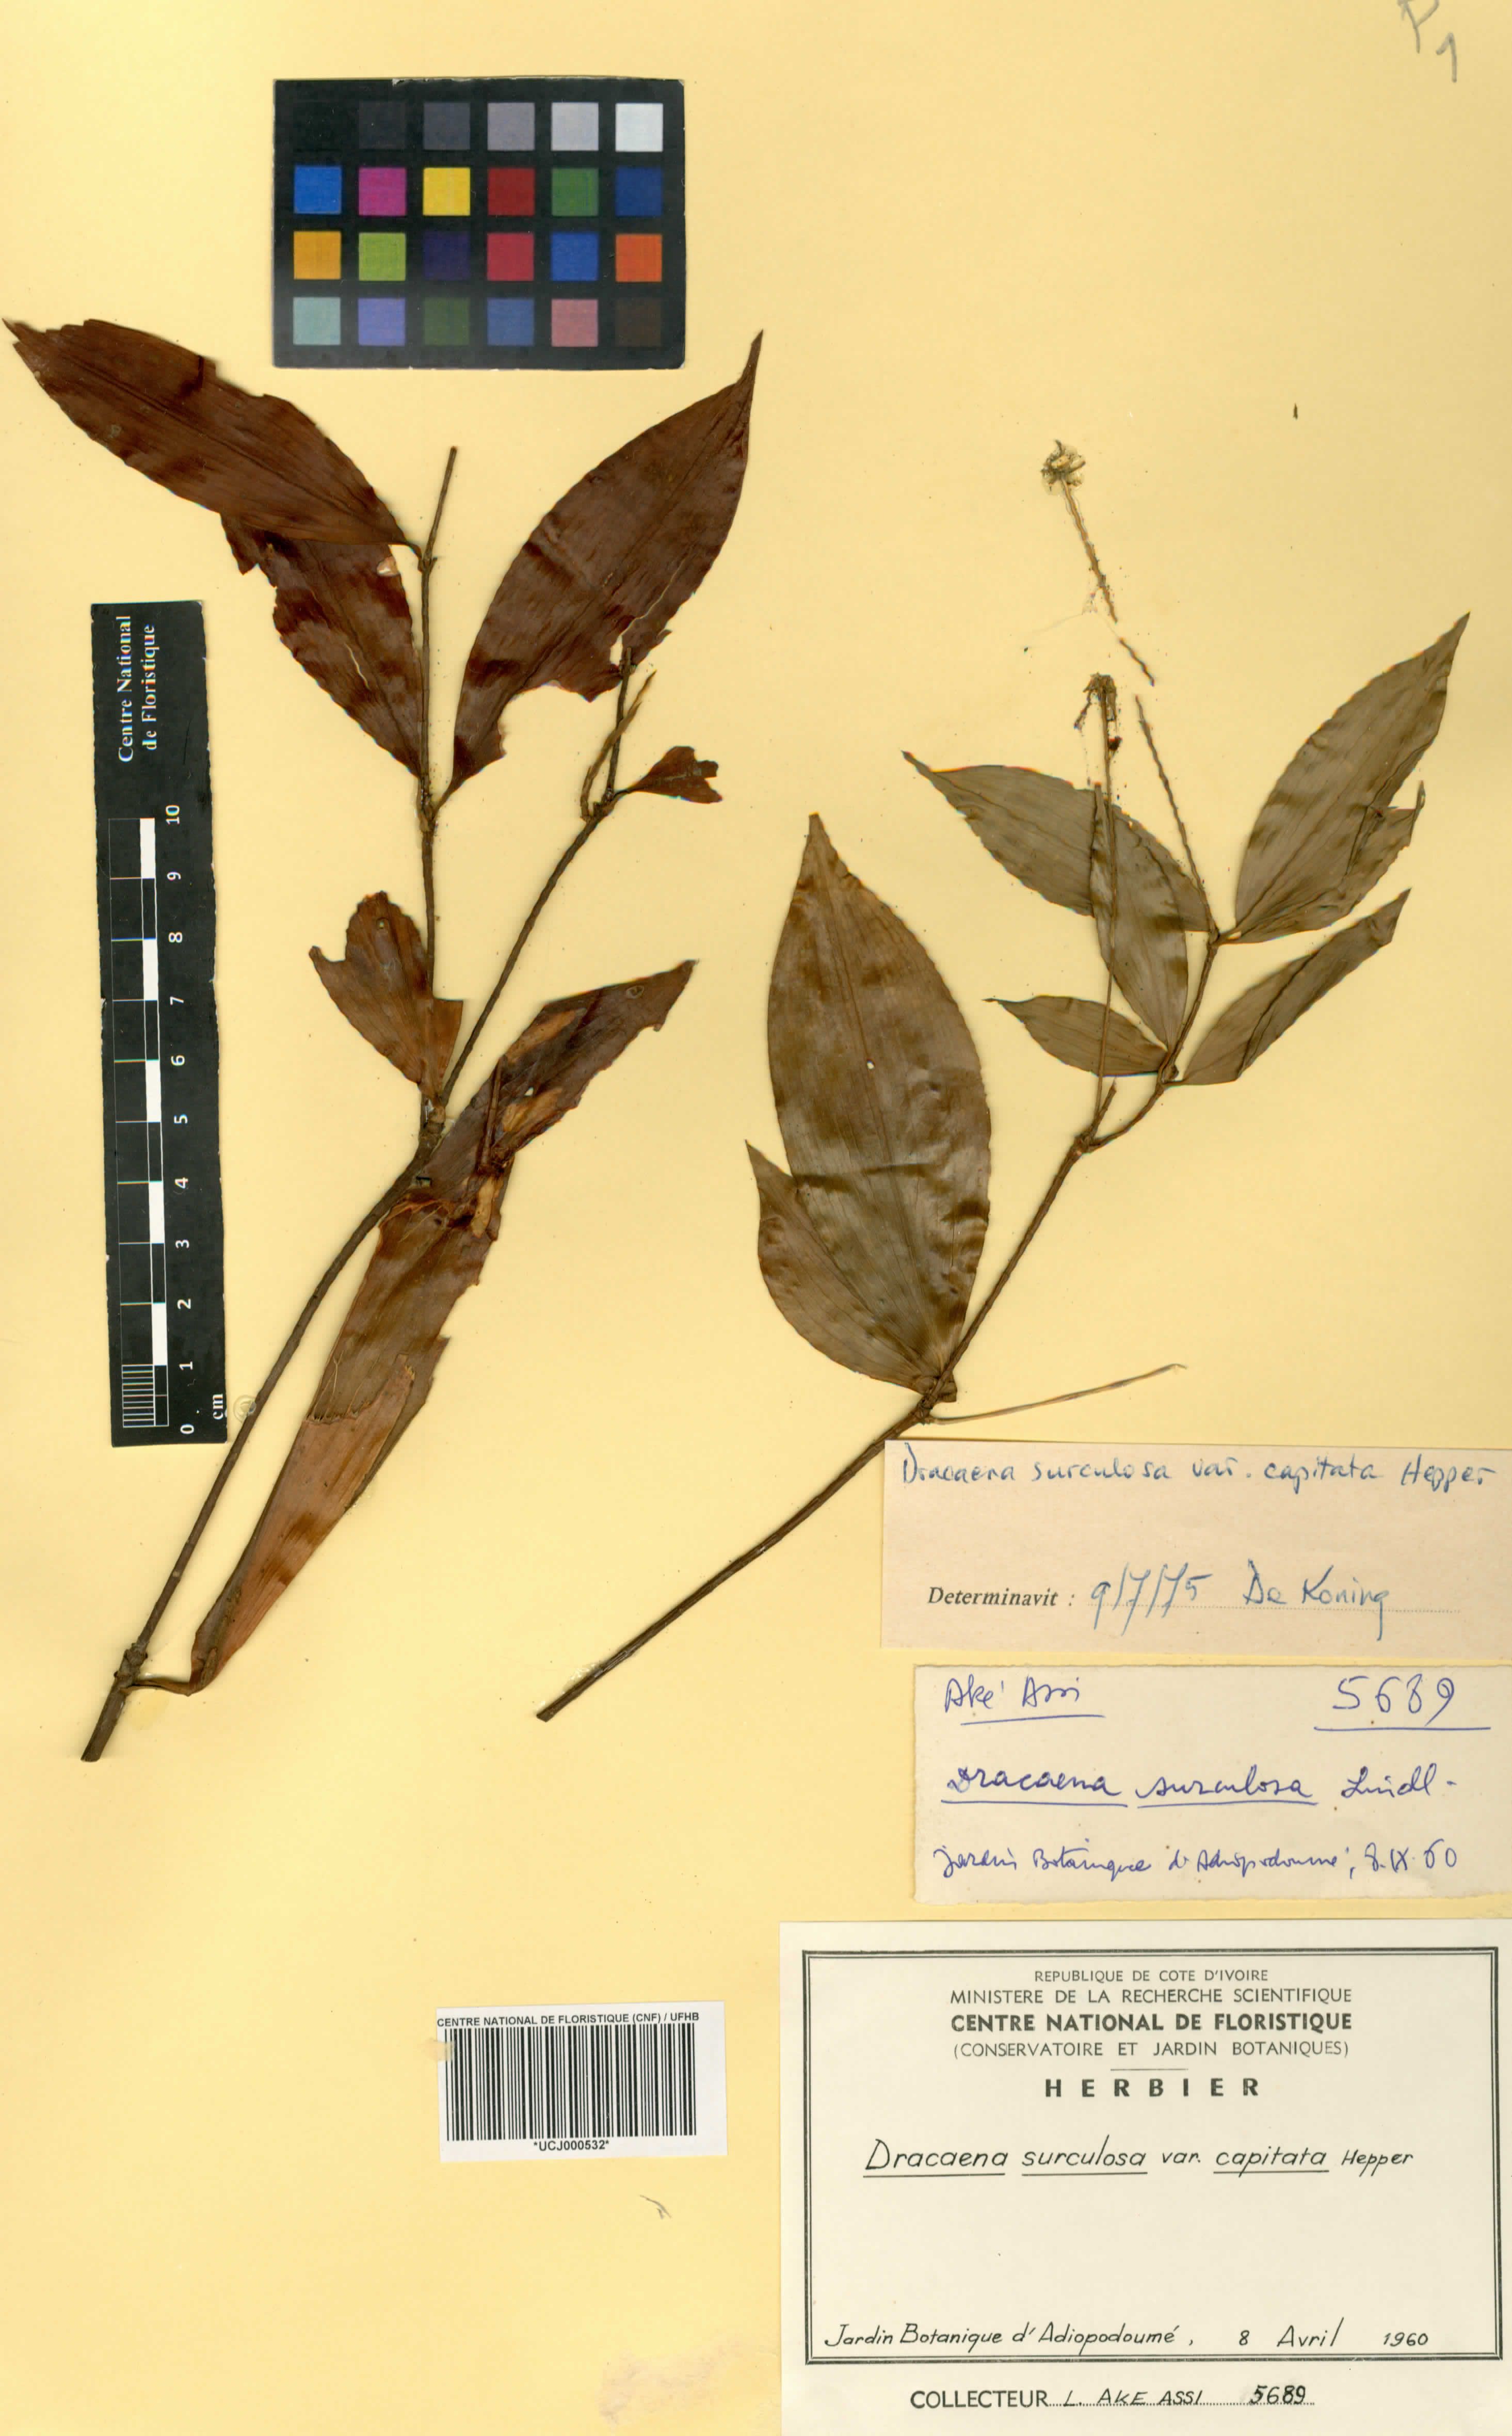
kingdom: Plantae
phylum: Tracheophyta
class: Liliopsida
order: Asparagales
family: Asparagaceae
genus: Dracaena
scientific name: Dracaena surculosa
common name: Spotted dracaena
